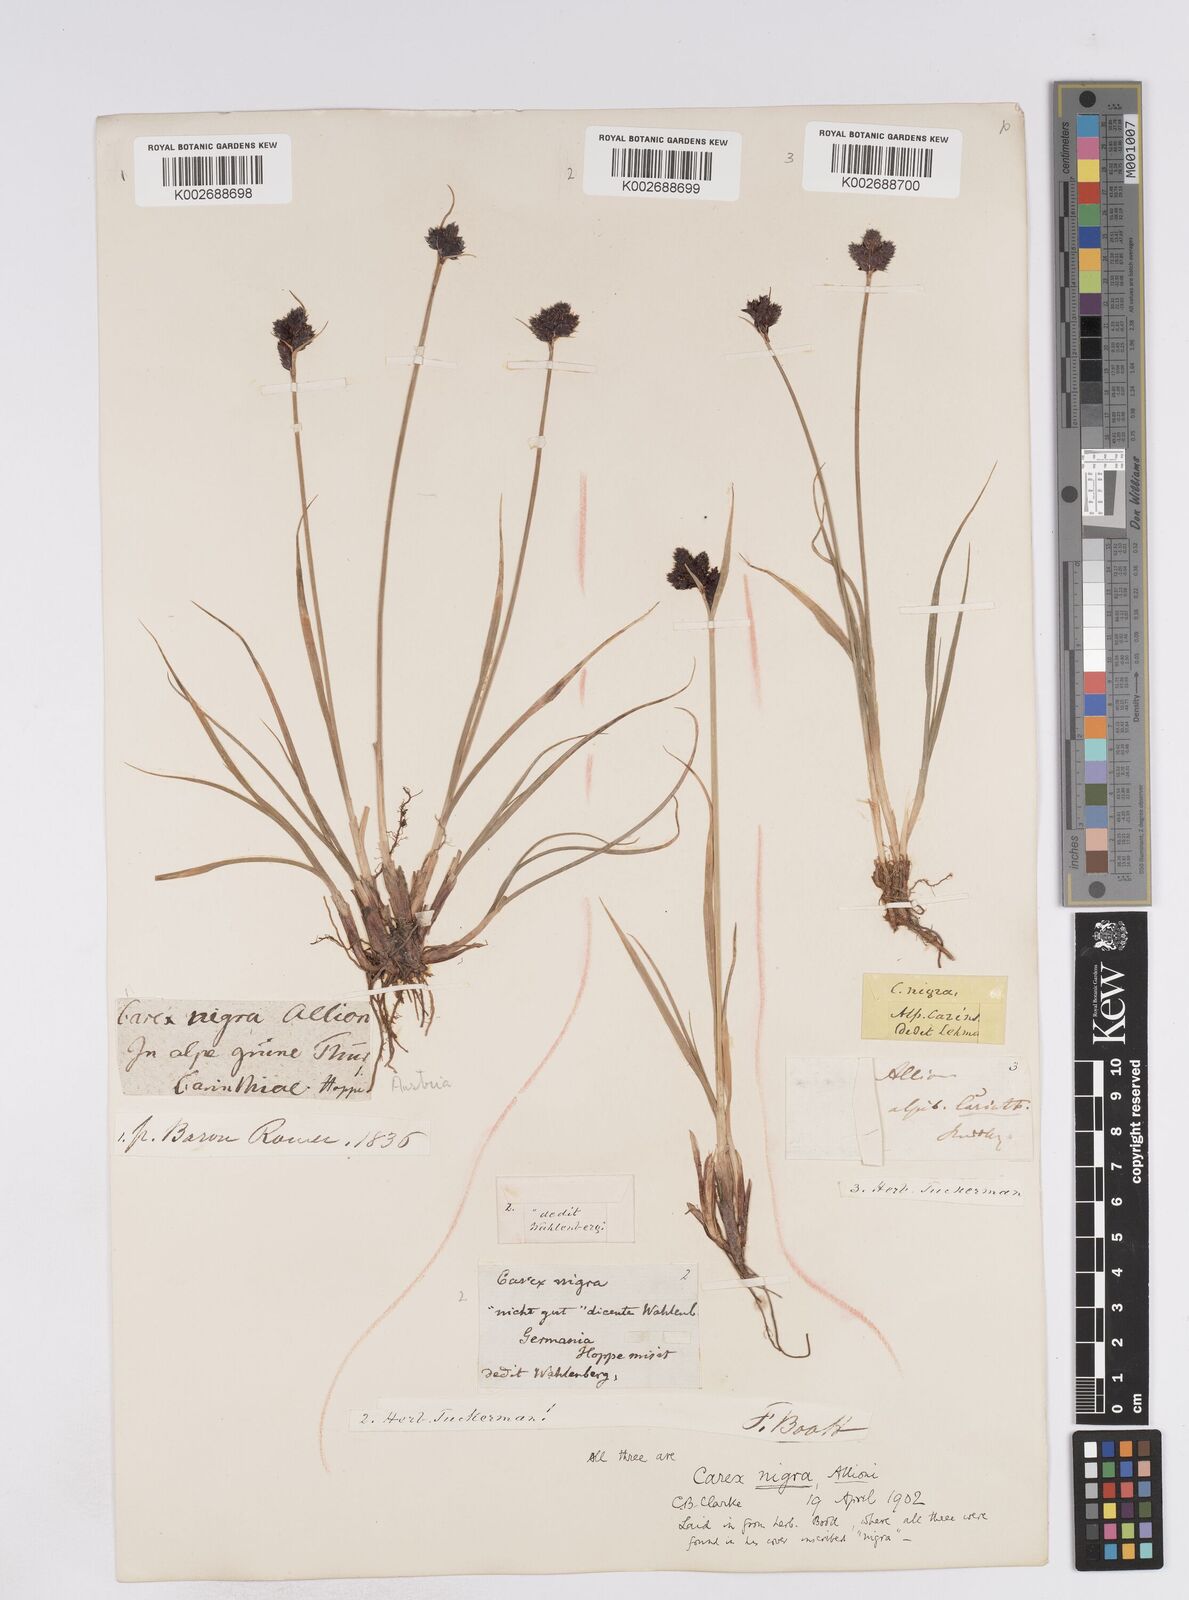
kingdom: Plantae
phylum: Tracheophyta
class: Liliopsida
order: Poales
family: Cyperaceae
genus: Carex
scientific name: Carex parviflora
